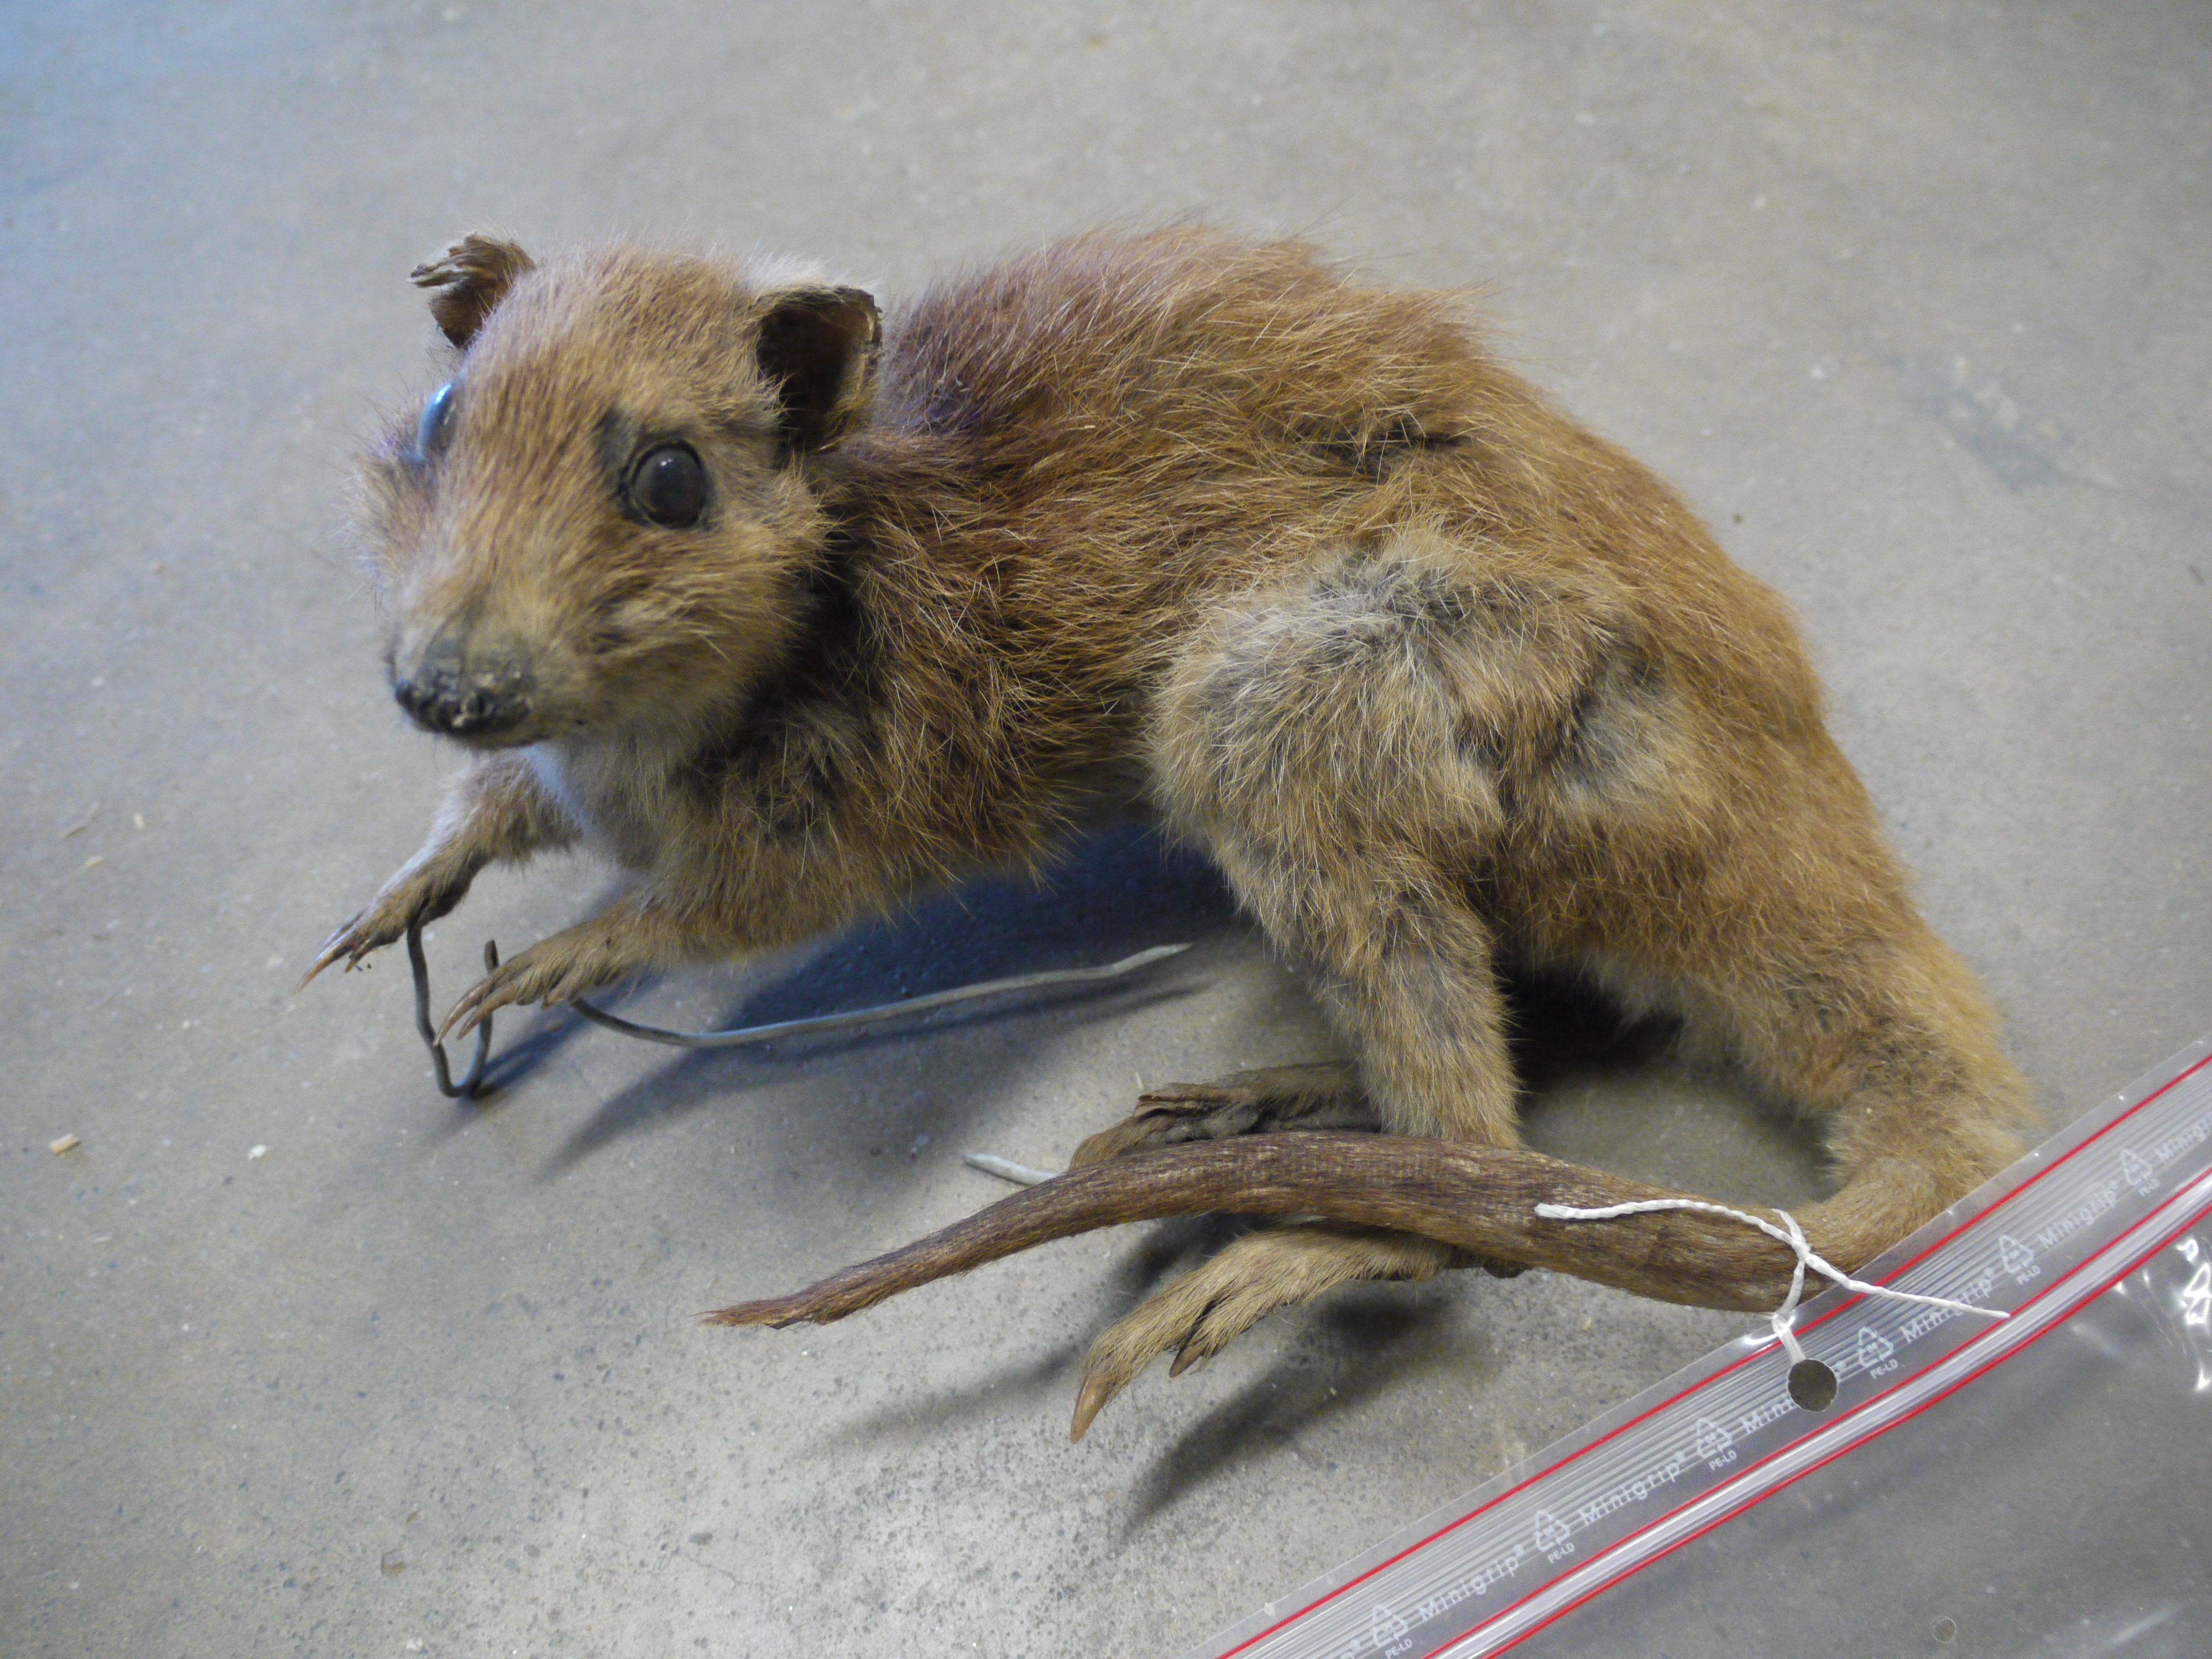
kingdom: Animalia
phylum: Chordata
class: Mammalia
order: Diprotodontia
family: Potoroidae
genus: Potorous
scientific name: Potorous longipes
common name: Long-footed potoroo
